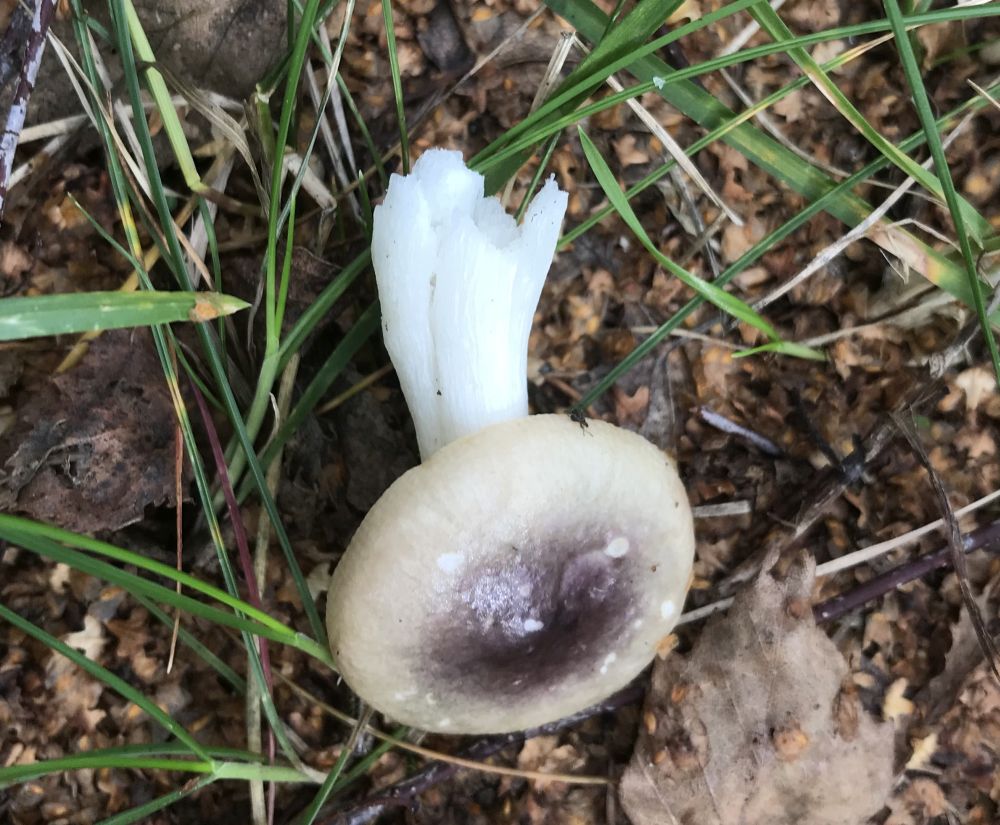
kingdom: Fungi
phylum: Basidiomycota
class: Agaricomycetes
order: Russulales
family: Russulaceae
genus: Russula
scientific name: Russula
